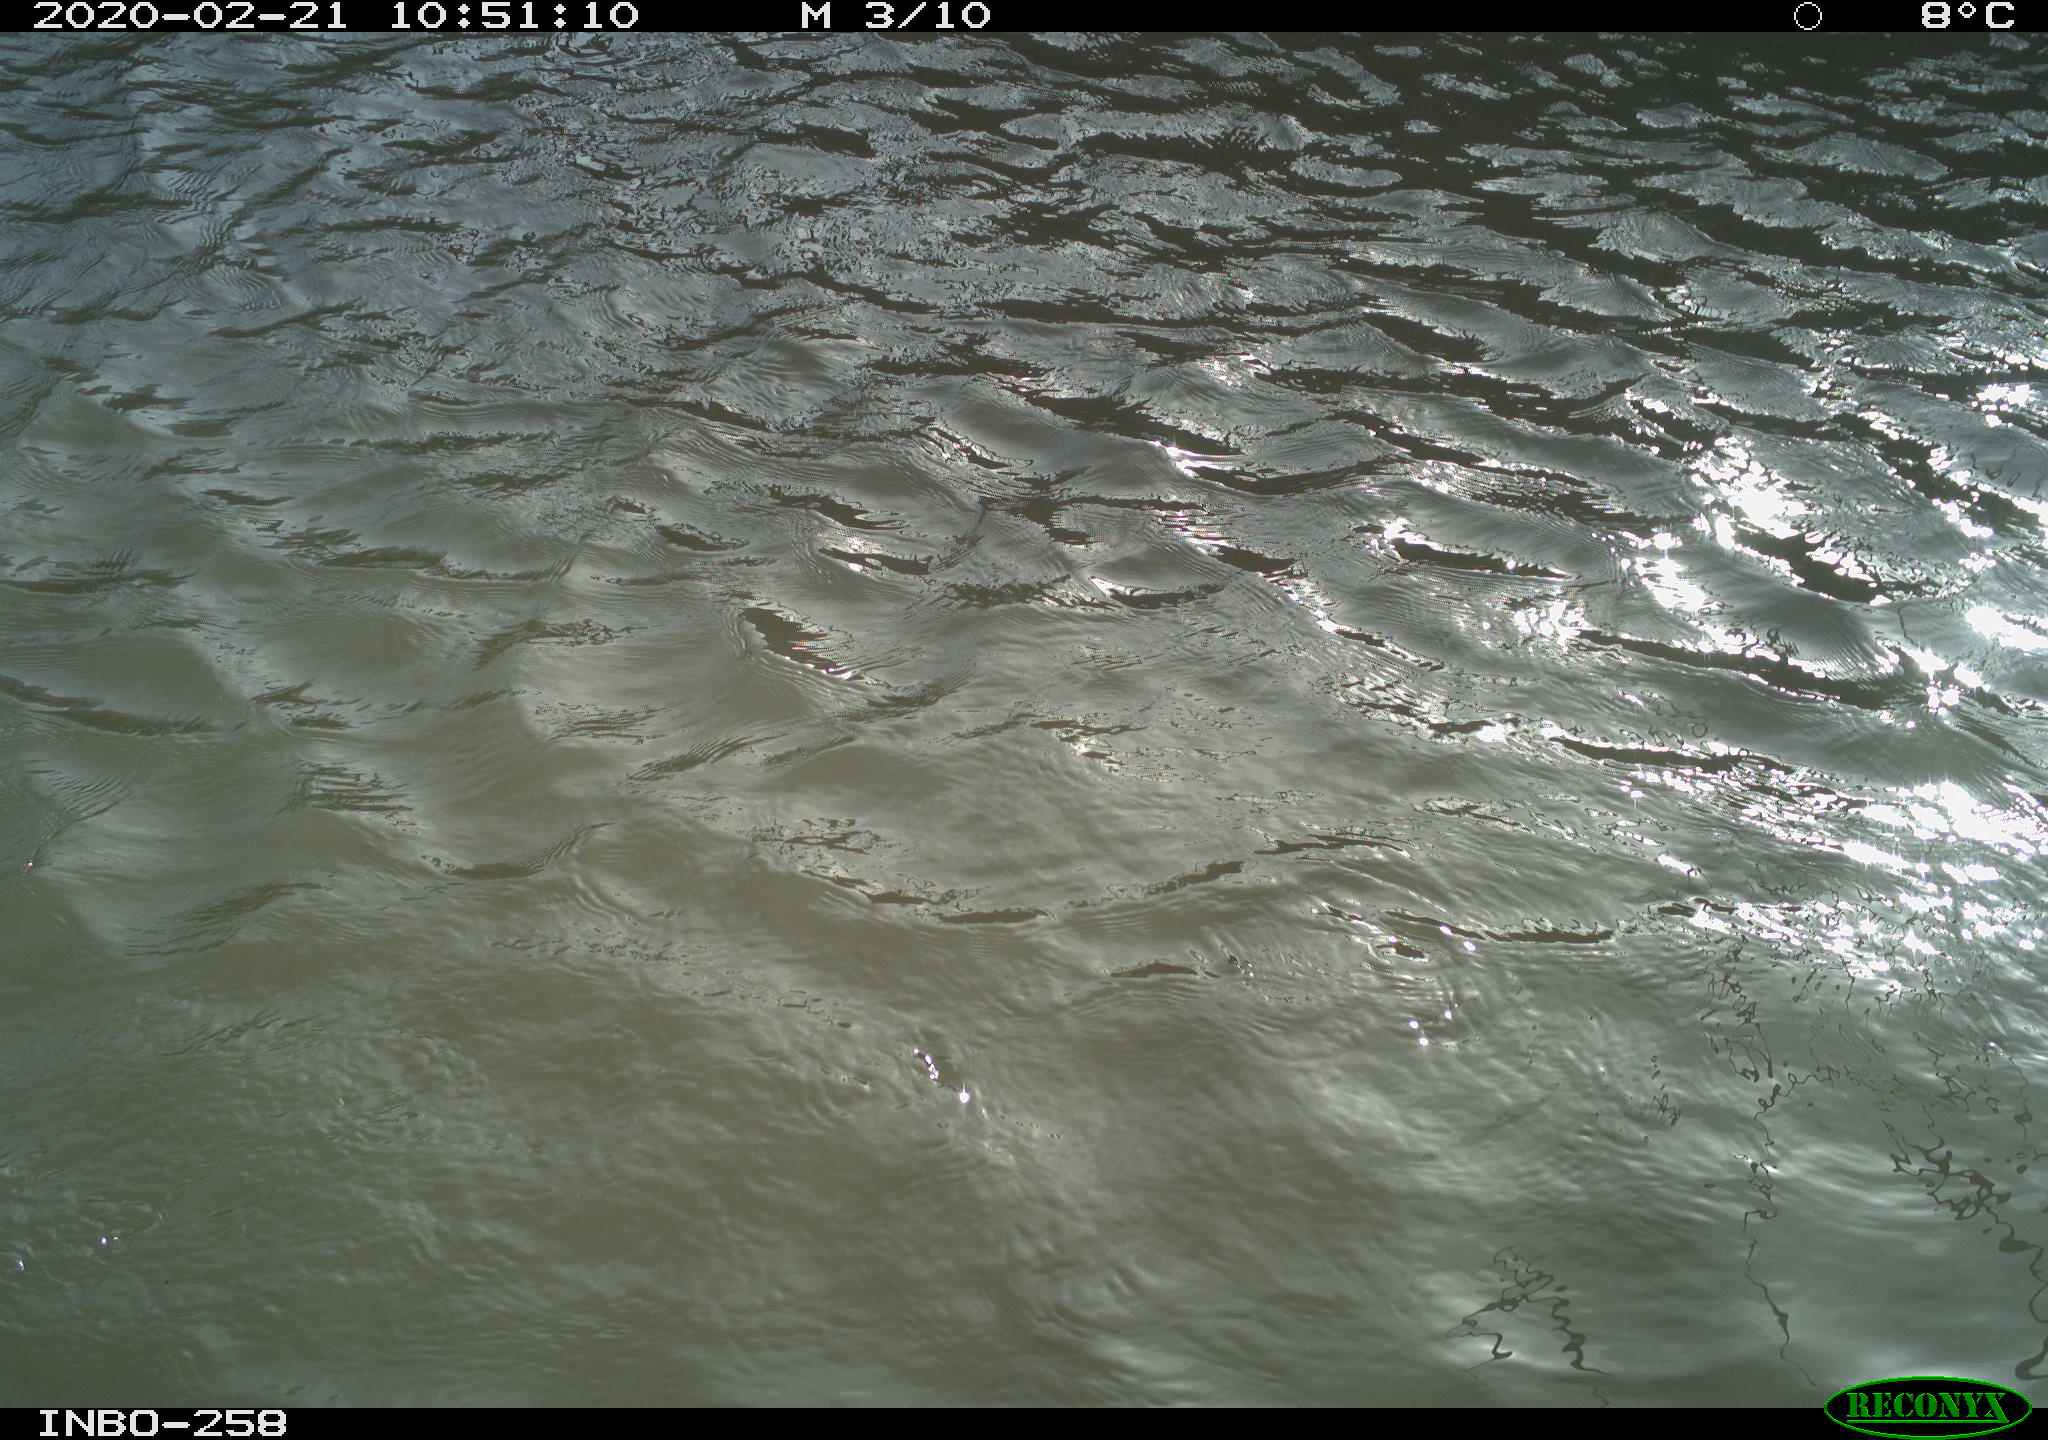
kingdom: Animalia
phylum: Chordata
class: Aves
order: Anseriformes
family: Anatidae
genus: Anas
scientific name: Anas platyrhynchos
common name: Mallard
